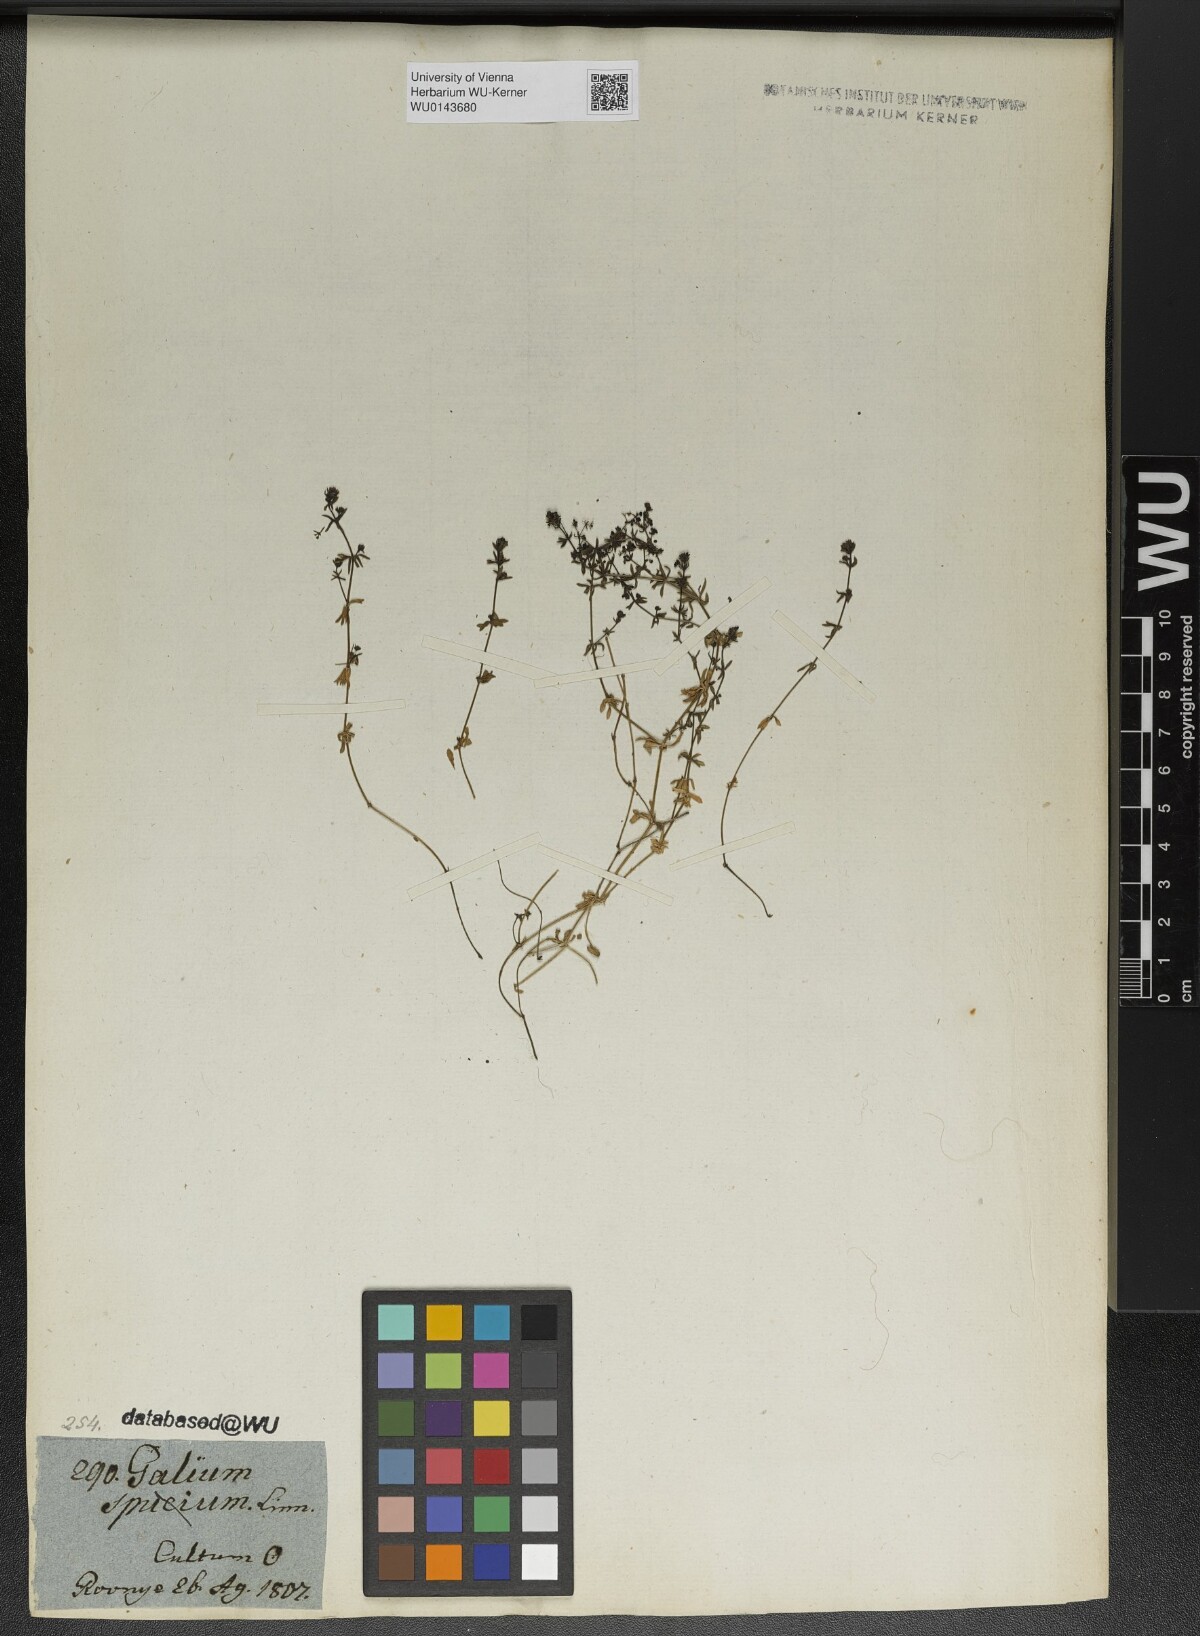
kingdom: Plantae
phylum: Tracheophyta
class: Magnoliopsida
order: Gentianales
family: Rubiaceae
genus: Galium
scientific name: Galium parisiense
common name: Wall bedstraw
